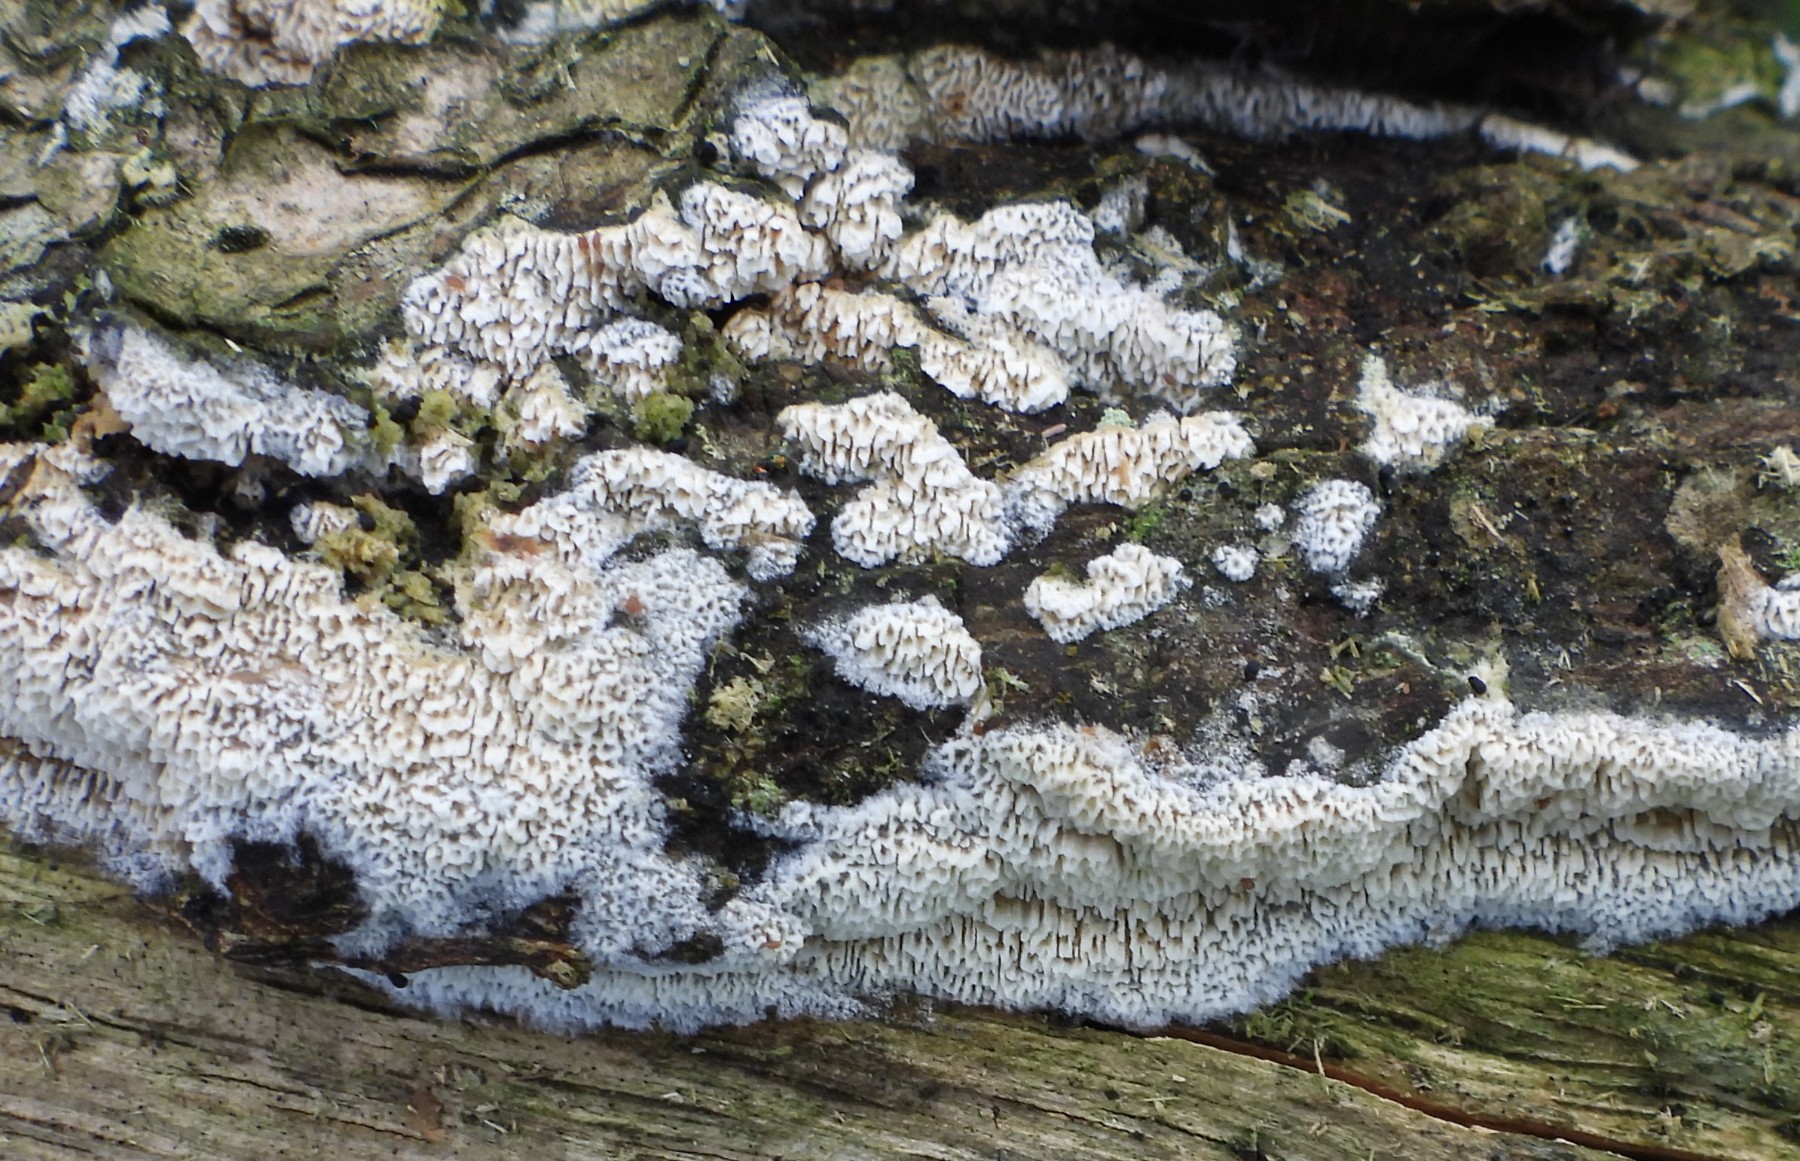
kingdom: Fungi
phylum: Basidiomycota
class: Agaricomycetes
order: Hymenochaetales
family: Schizoporaceae
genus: Schizopora
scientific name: Schizopora paradoxa
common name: hvid tandsvamp
